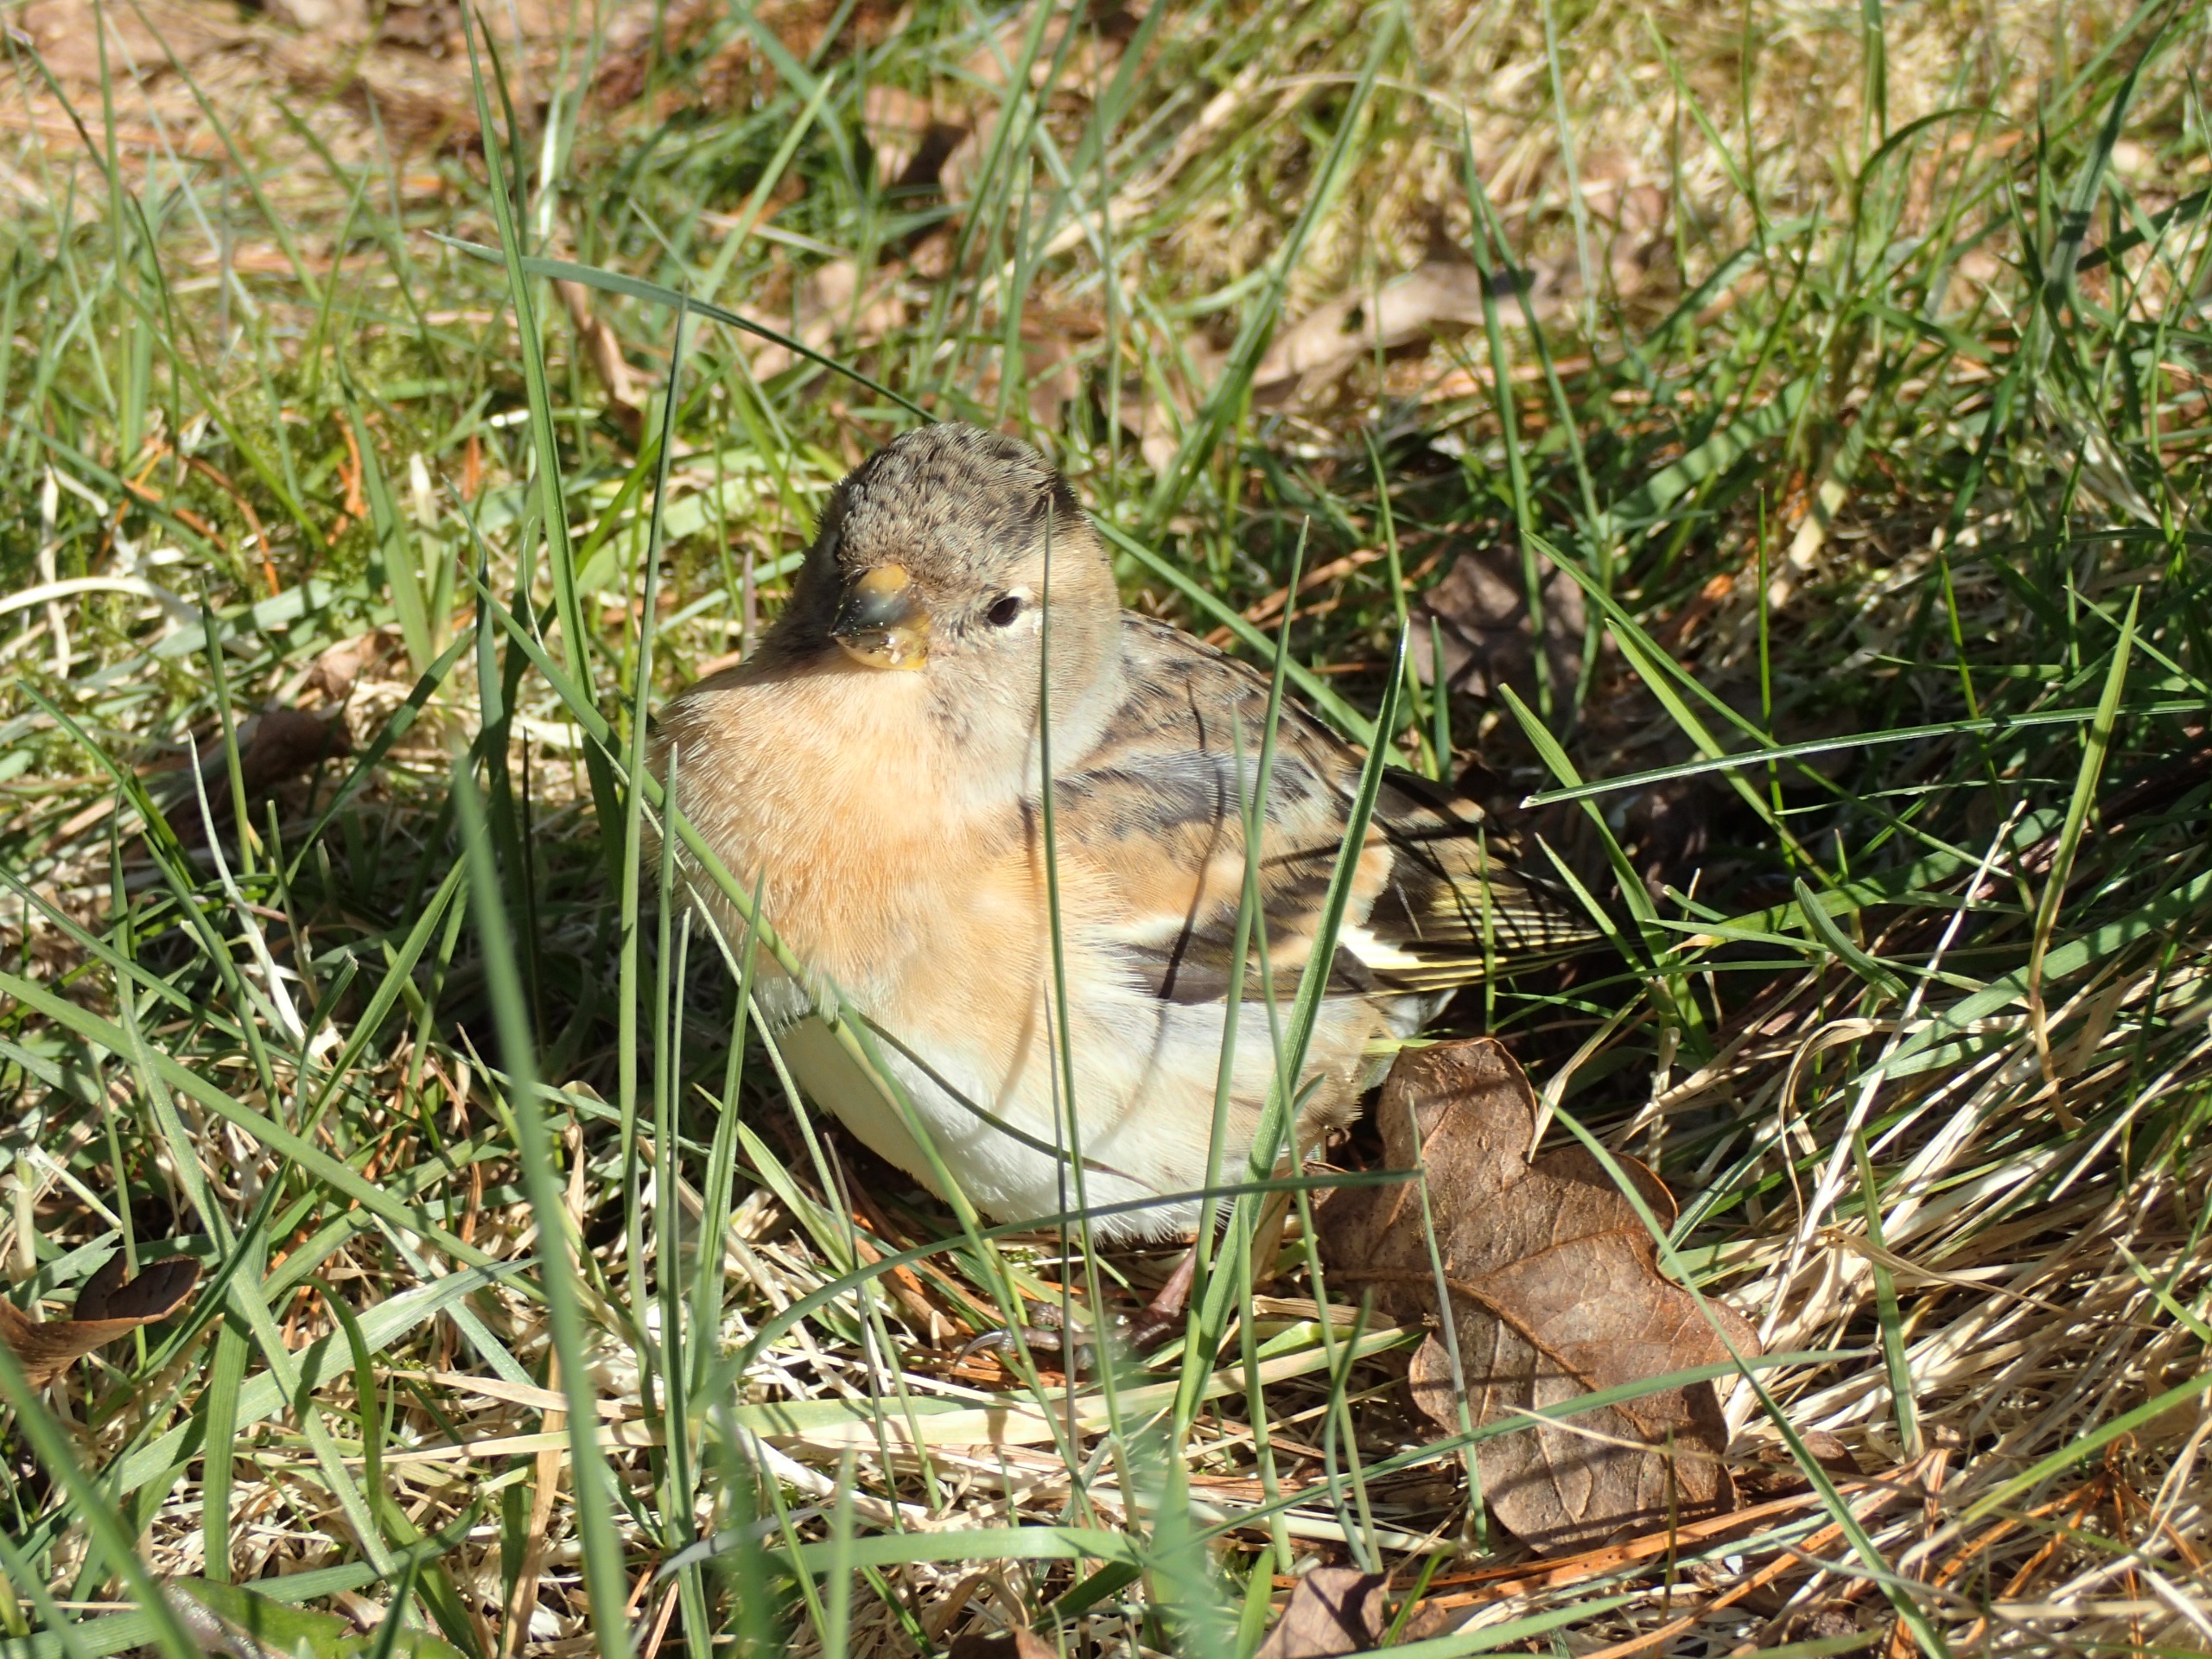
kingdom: Animalia
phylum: Chordata
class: Aves
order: Passeriformes
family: Fringillidae
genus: Fringilla
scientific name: Fringilla montifringilla
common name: Kvækerfinke
